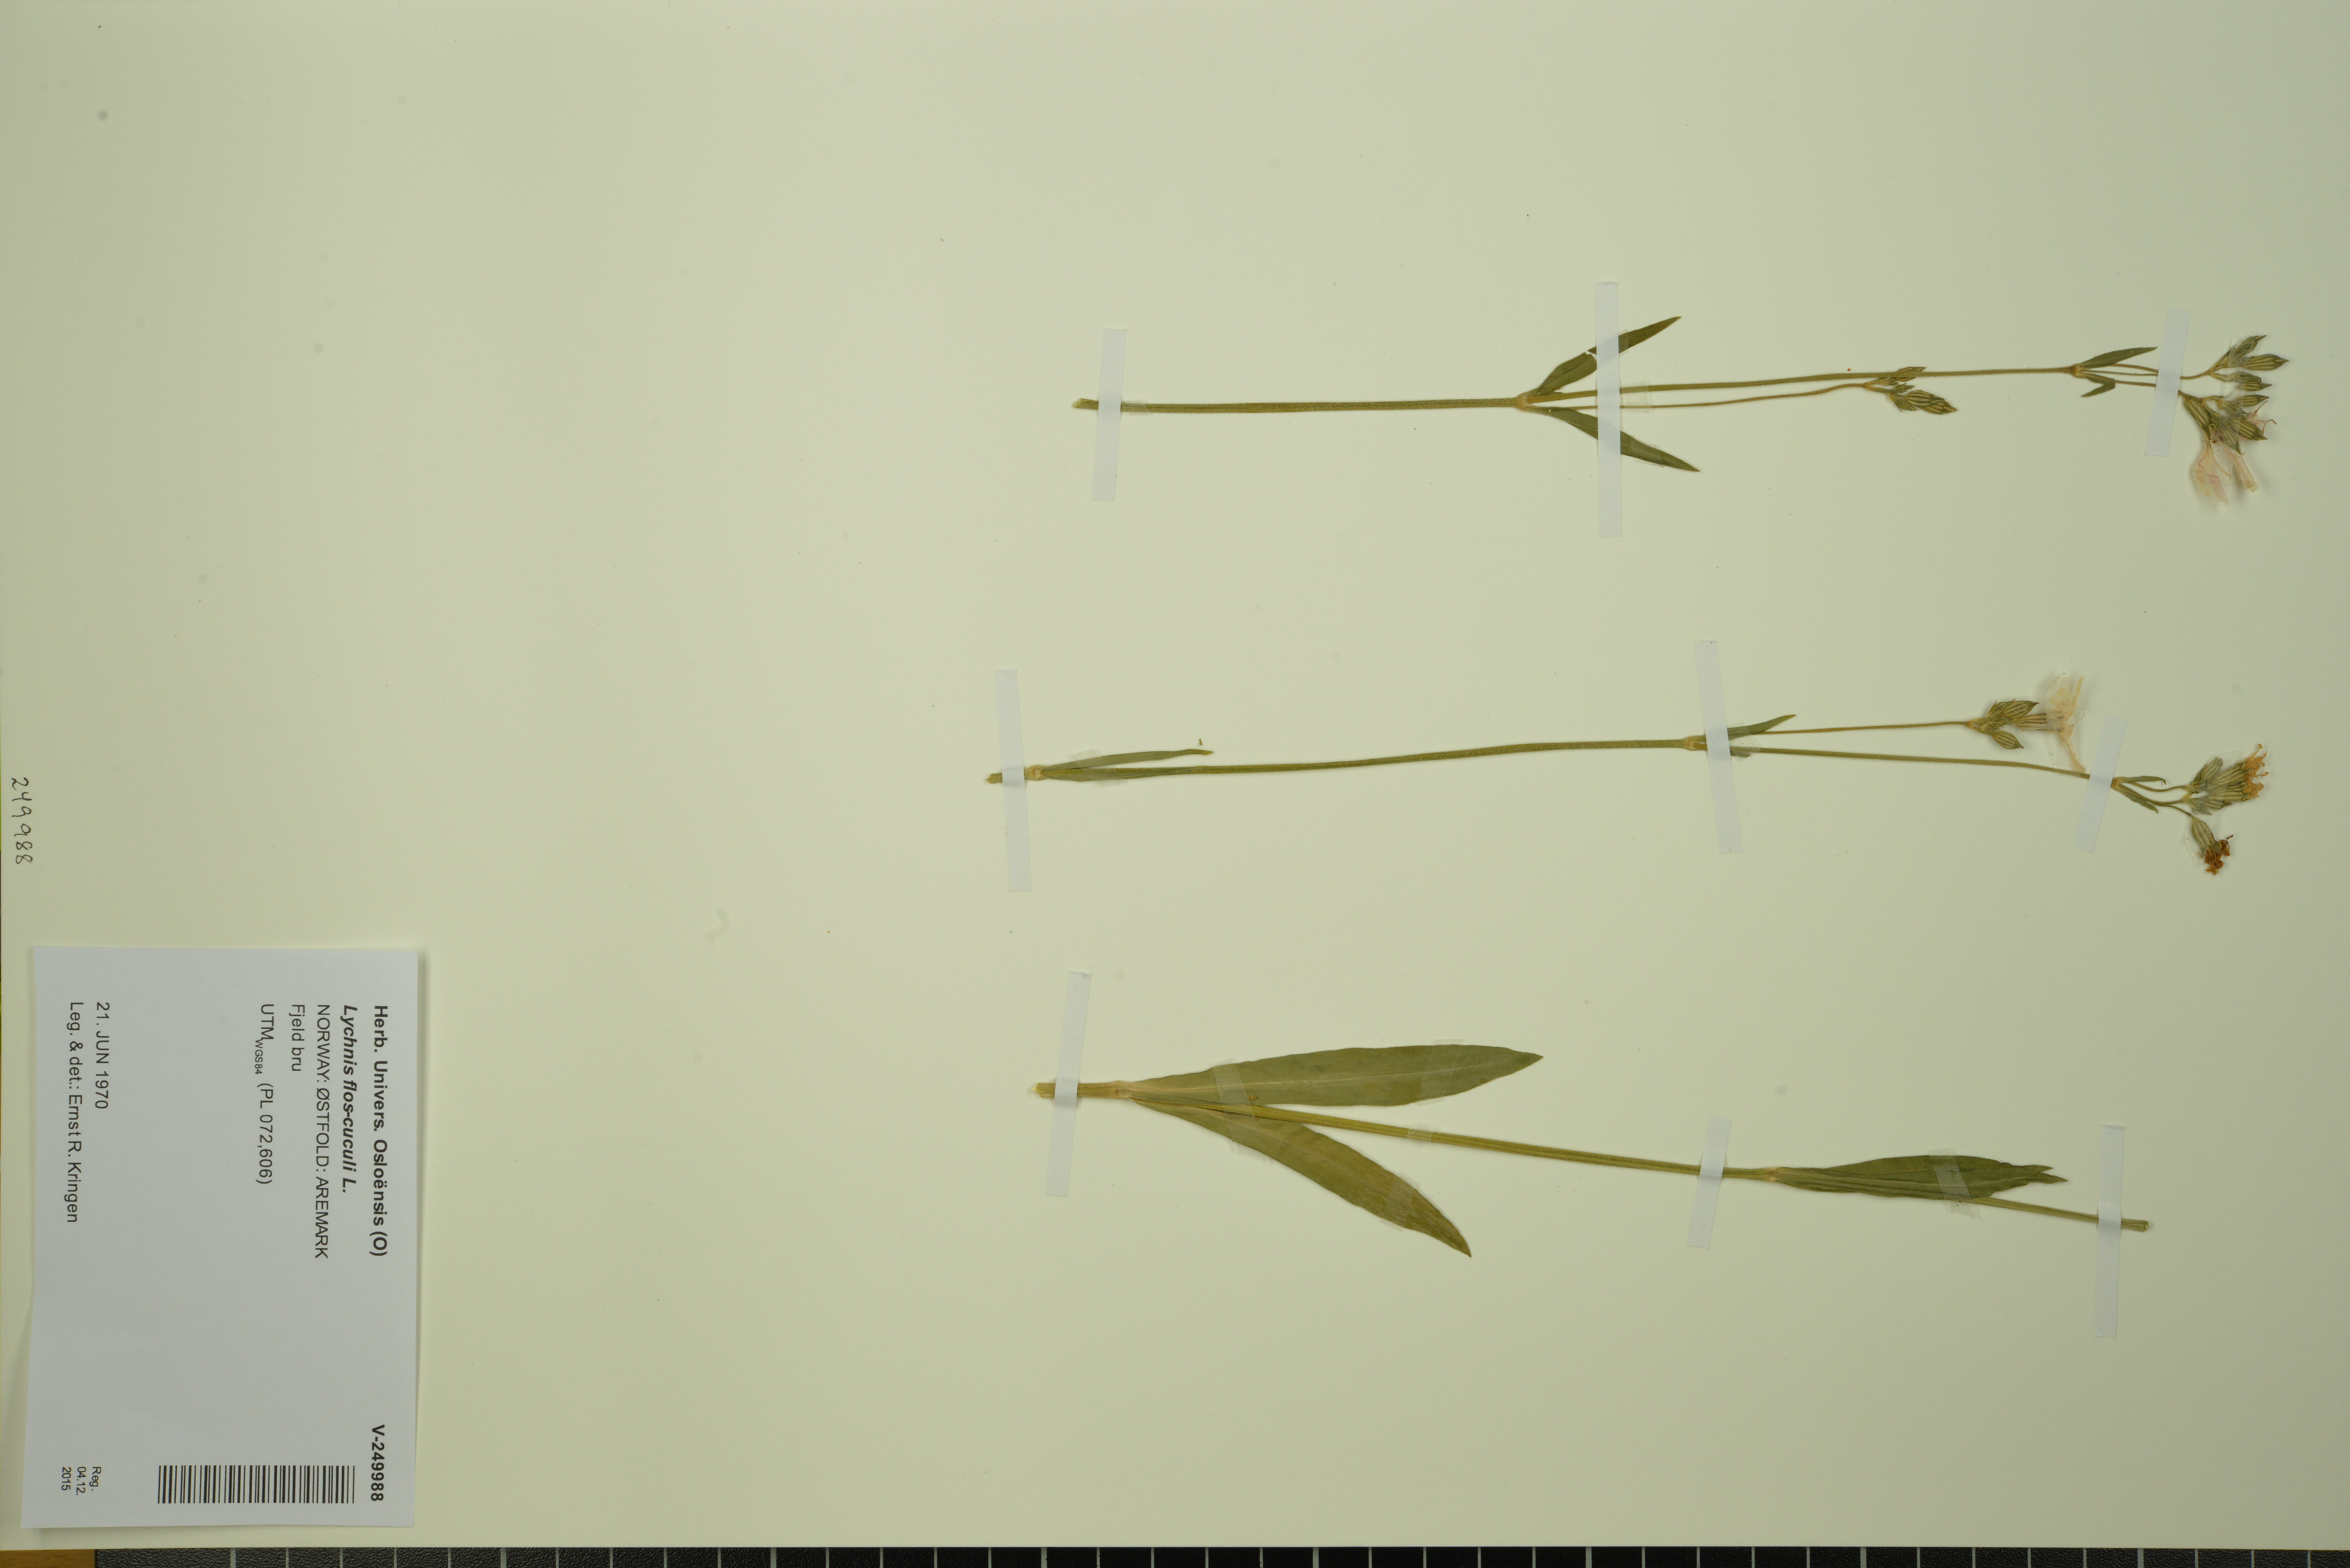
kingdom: Plantae
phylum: Tracheophyta
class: Magnoliopsida
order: Caryophyllales
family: Caryophyllaceae
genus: Silene
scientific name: Silene flos-cuculi
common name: Ragged-robin
